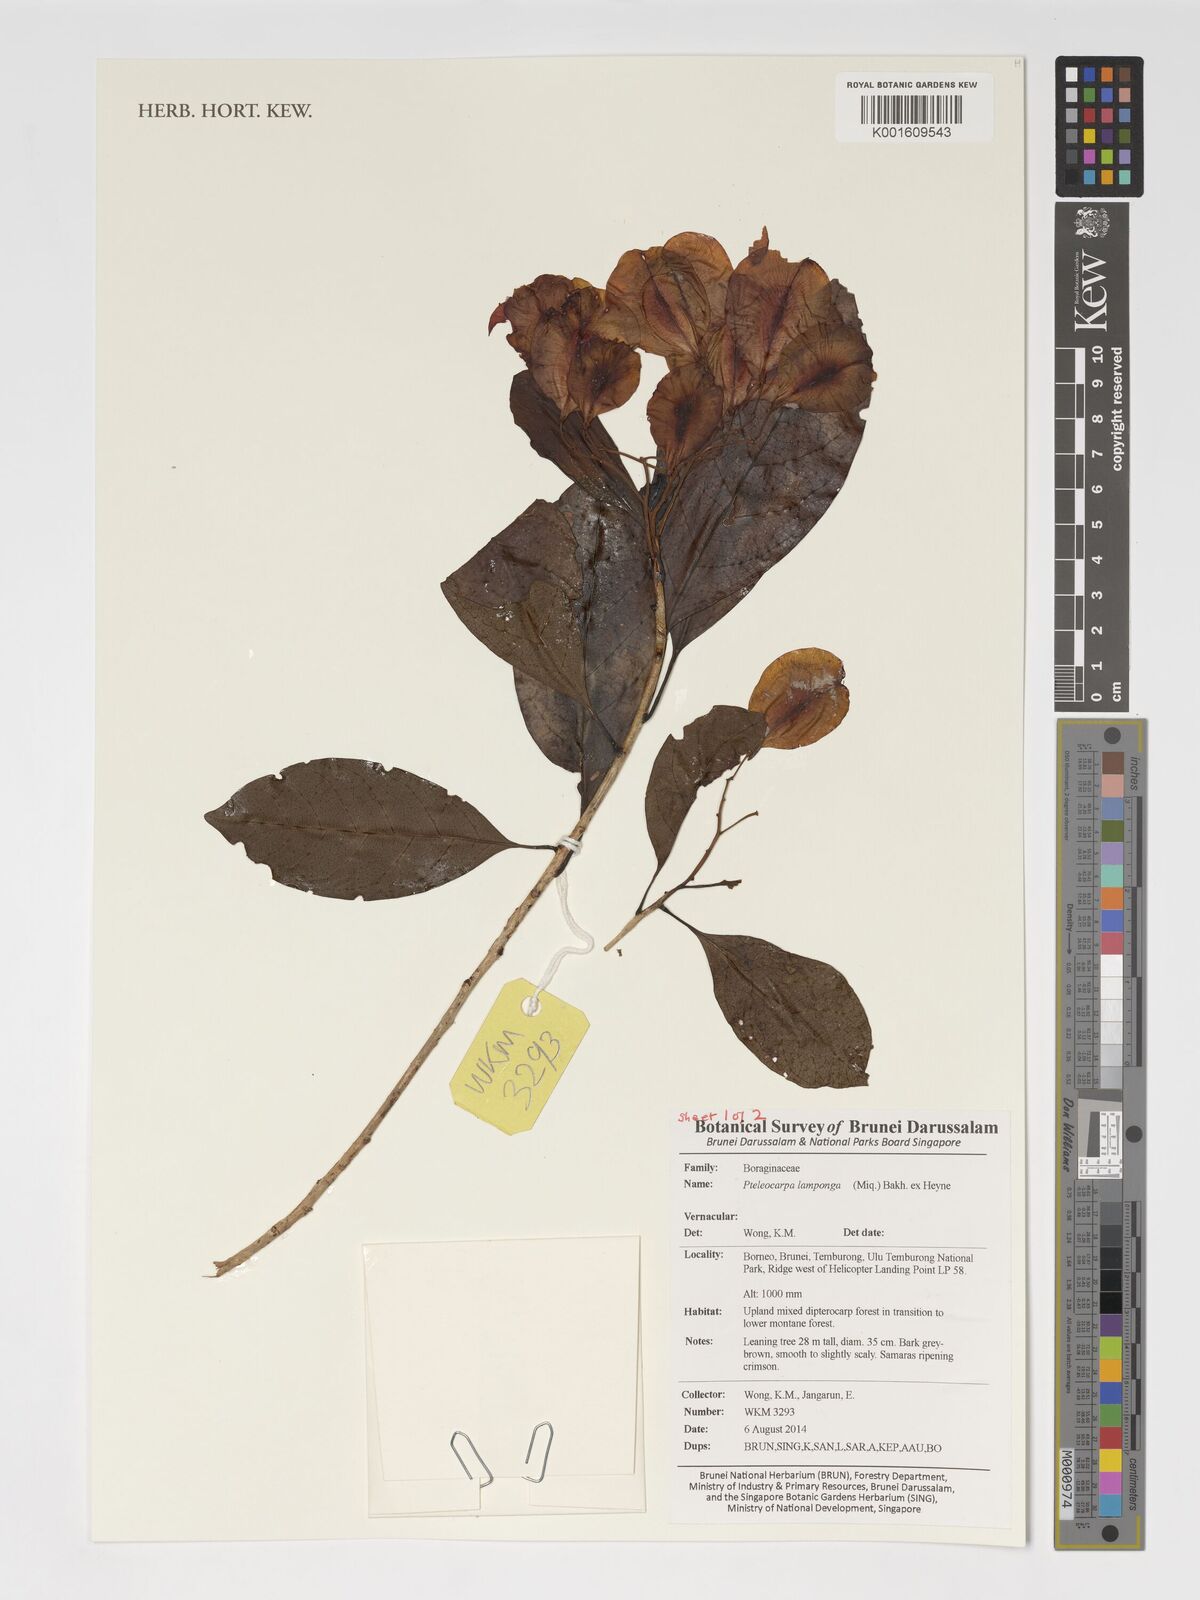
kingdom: Plantae
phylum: Tracheophyta
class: Magnoliopsida
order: Gentianales
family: Gelsemiaceae
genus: Pteleocarpa
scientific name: Pteleocarpa lamponga
